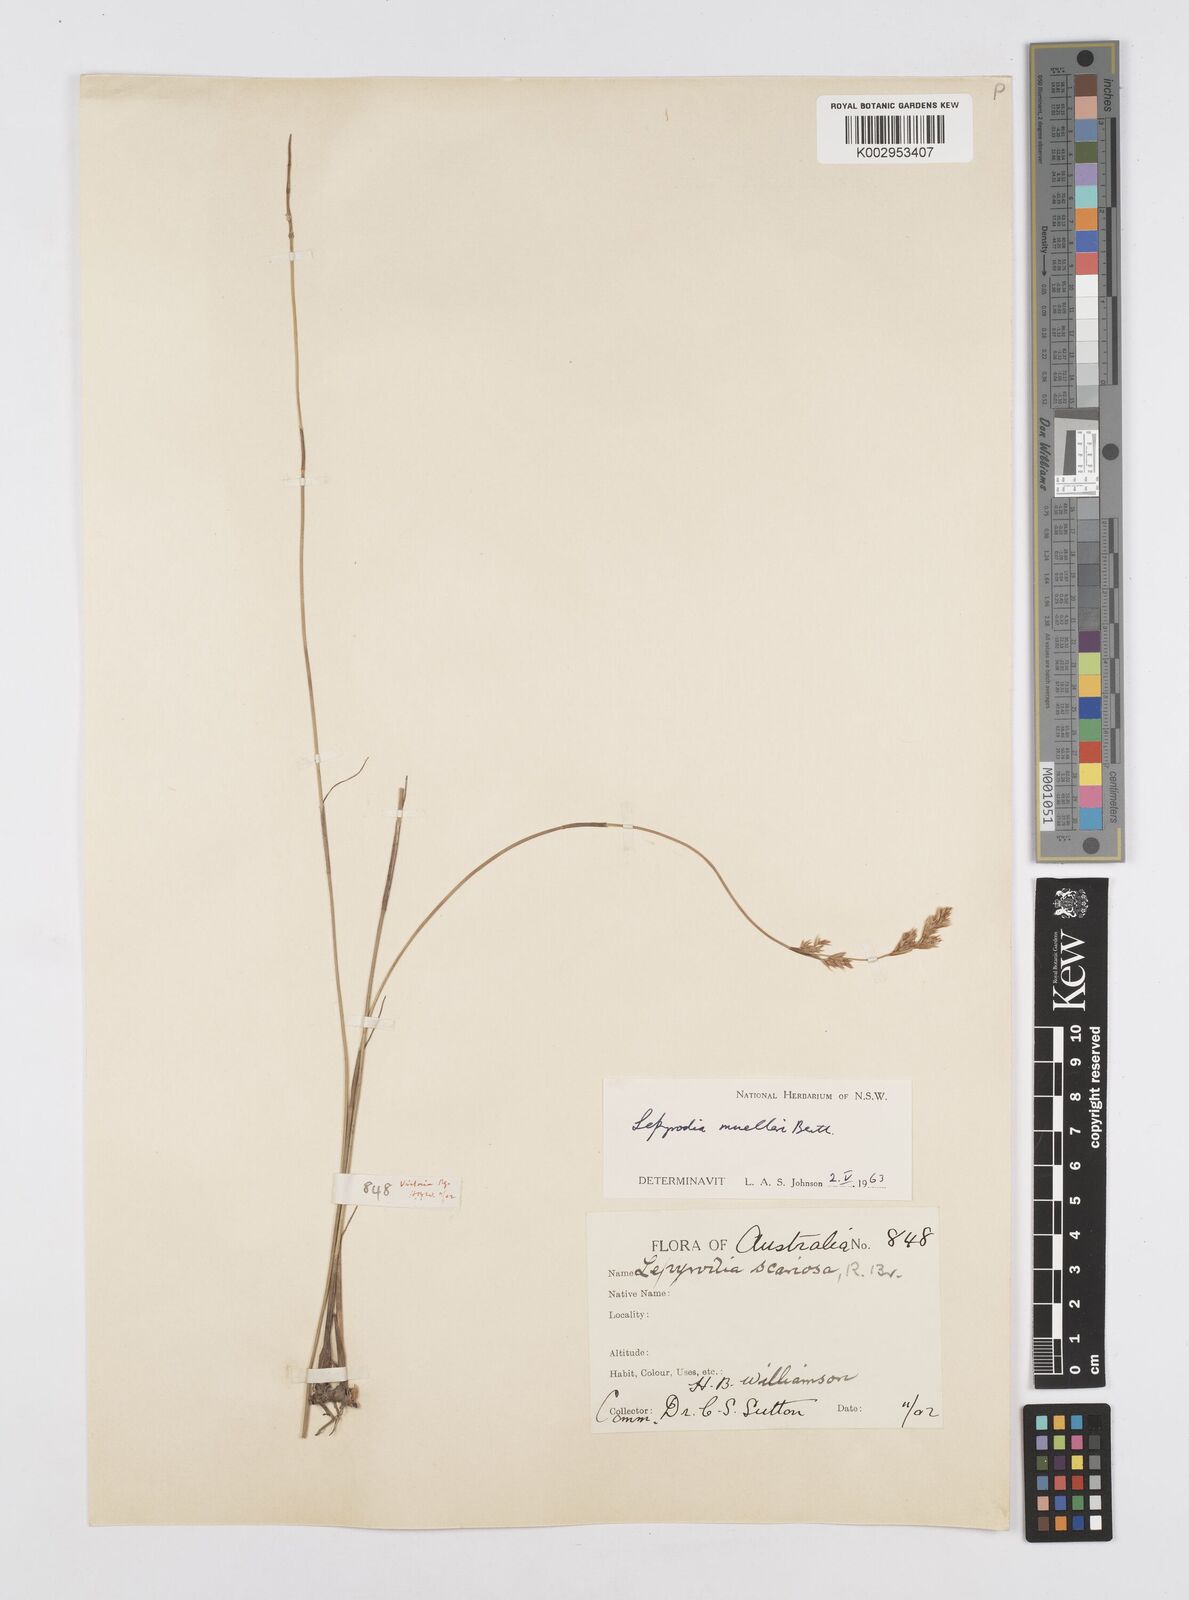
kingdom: Plantae
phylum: Tracheophyta
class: Liliopsida
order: Poales
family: Restionaceae
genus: Lepyrodia
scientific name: Lepyrodia muelleri
